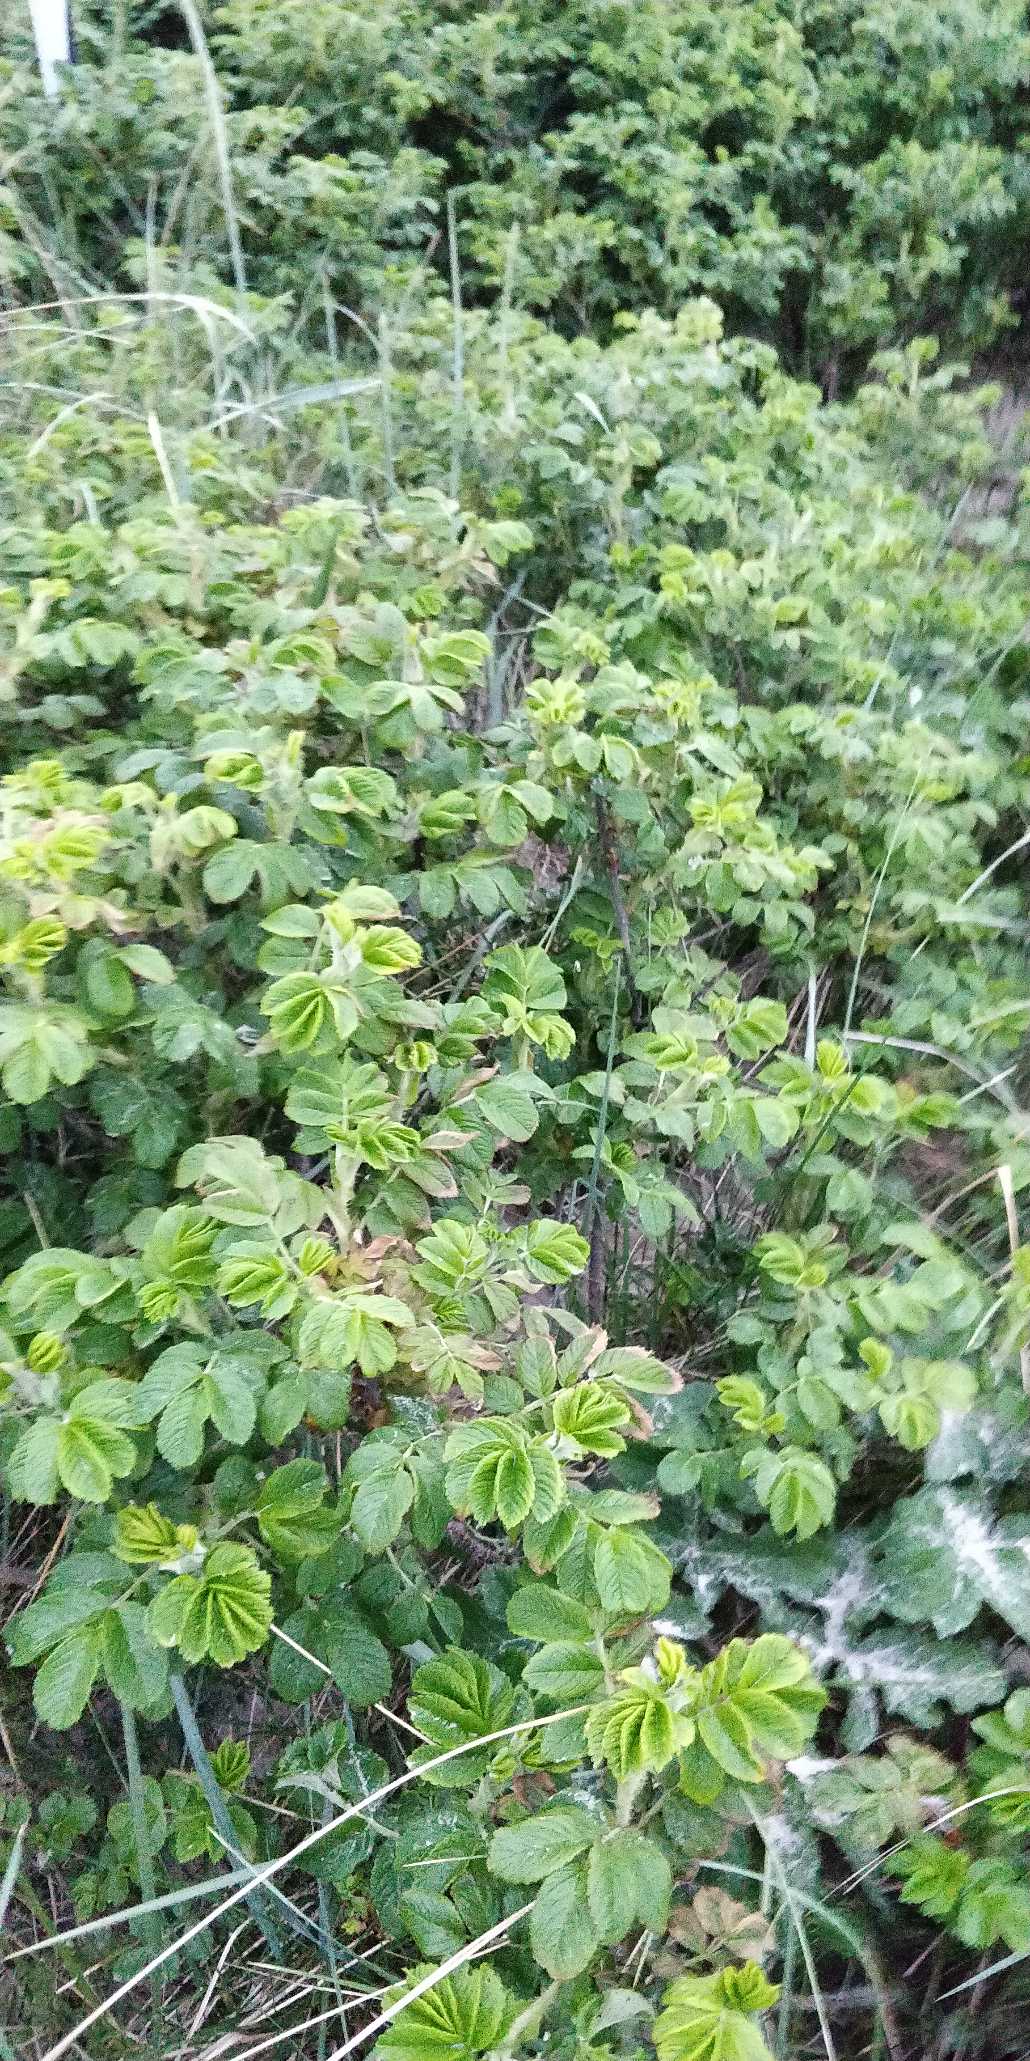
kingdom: Plantae
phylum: Tracheophyta
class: Magnoliopsida
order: Rosales
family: Rosaceae
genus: Rosa
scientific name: Rosa rugosa
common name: Rynket rose
